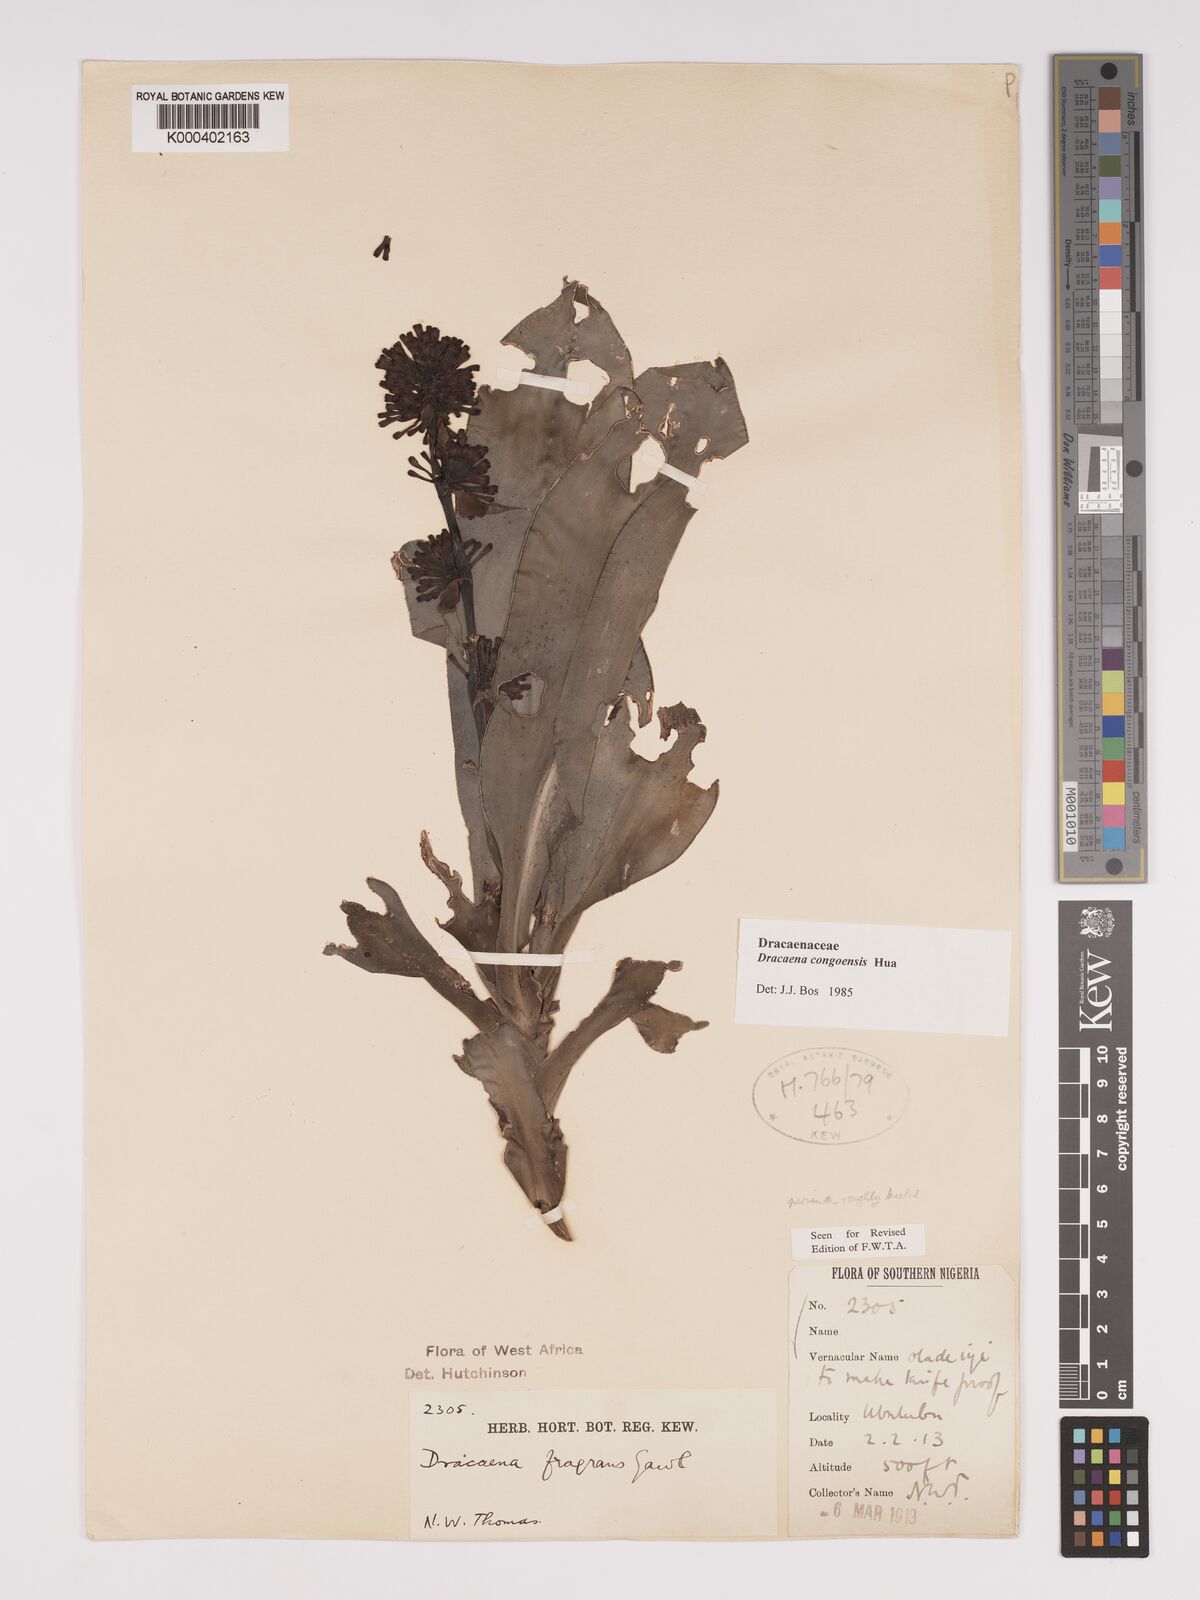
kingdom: Plantae
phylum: Tracheophyta
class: Liliopsida
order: Asparagales
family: Asparagaceae
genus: Dracaena
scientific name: Dracaena congoensis
